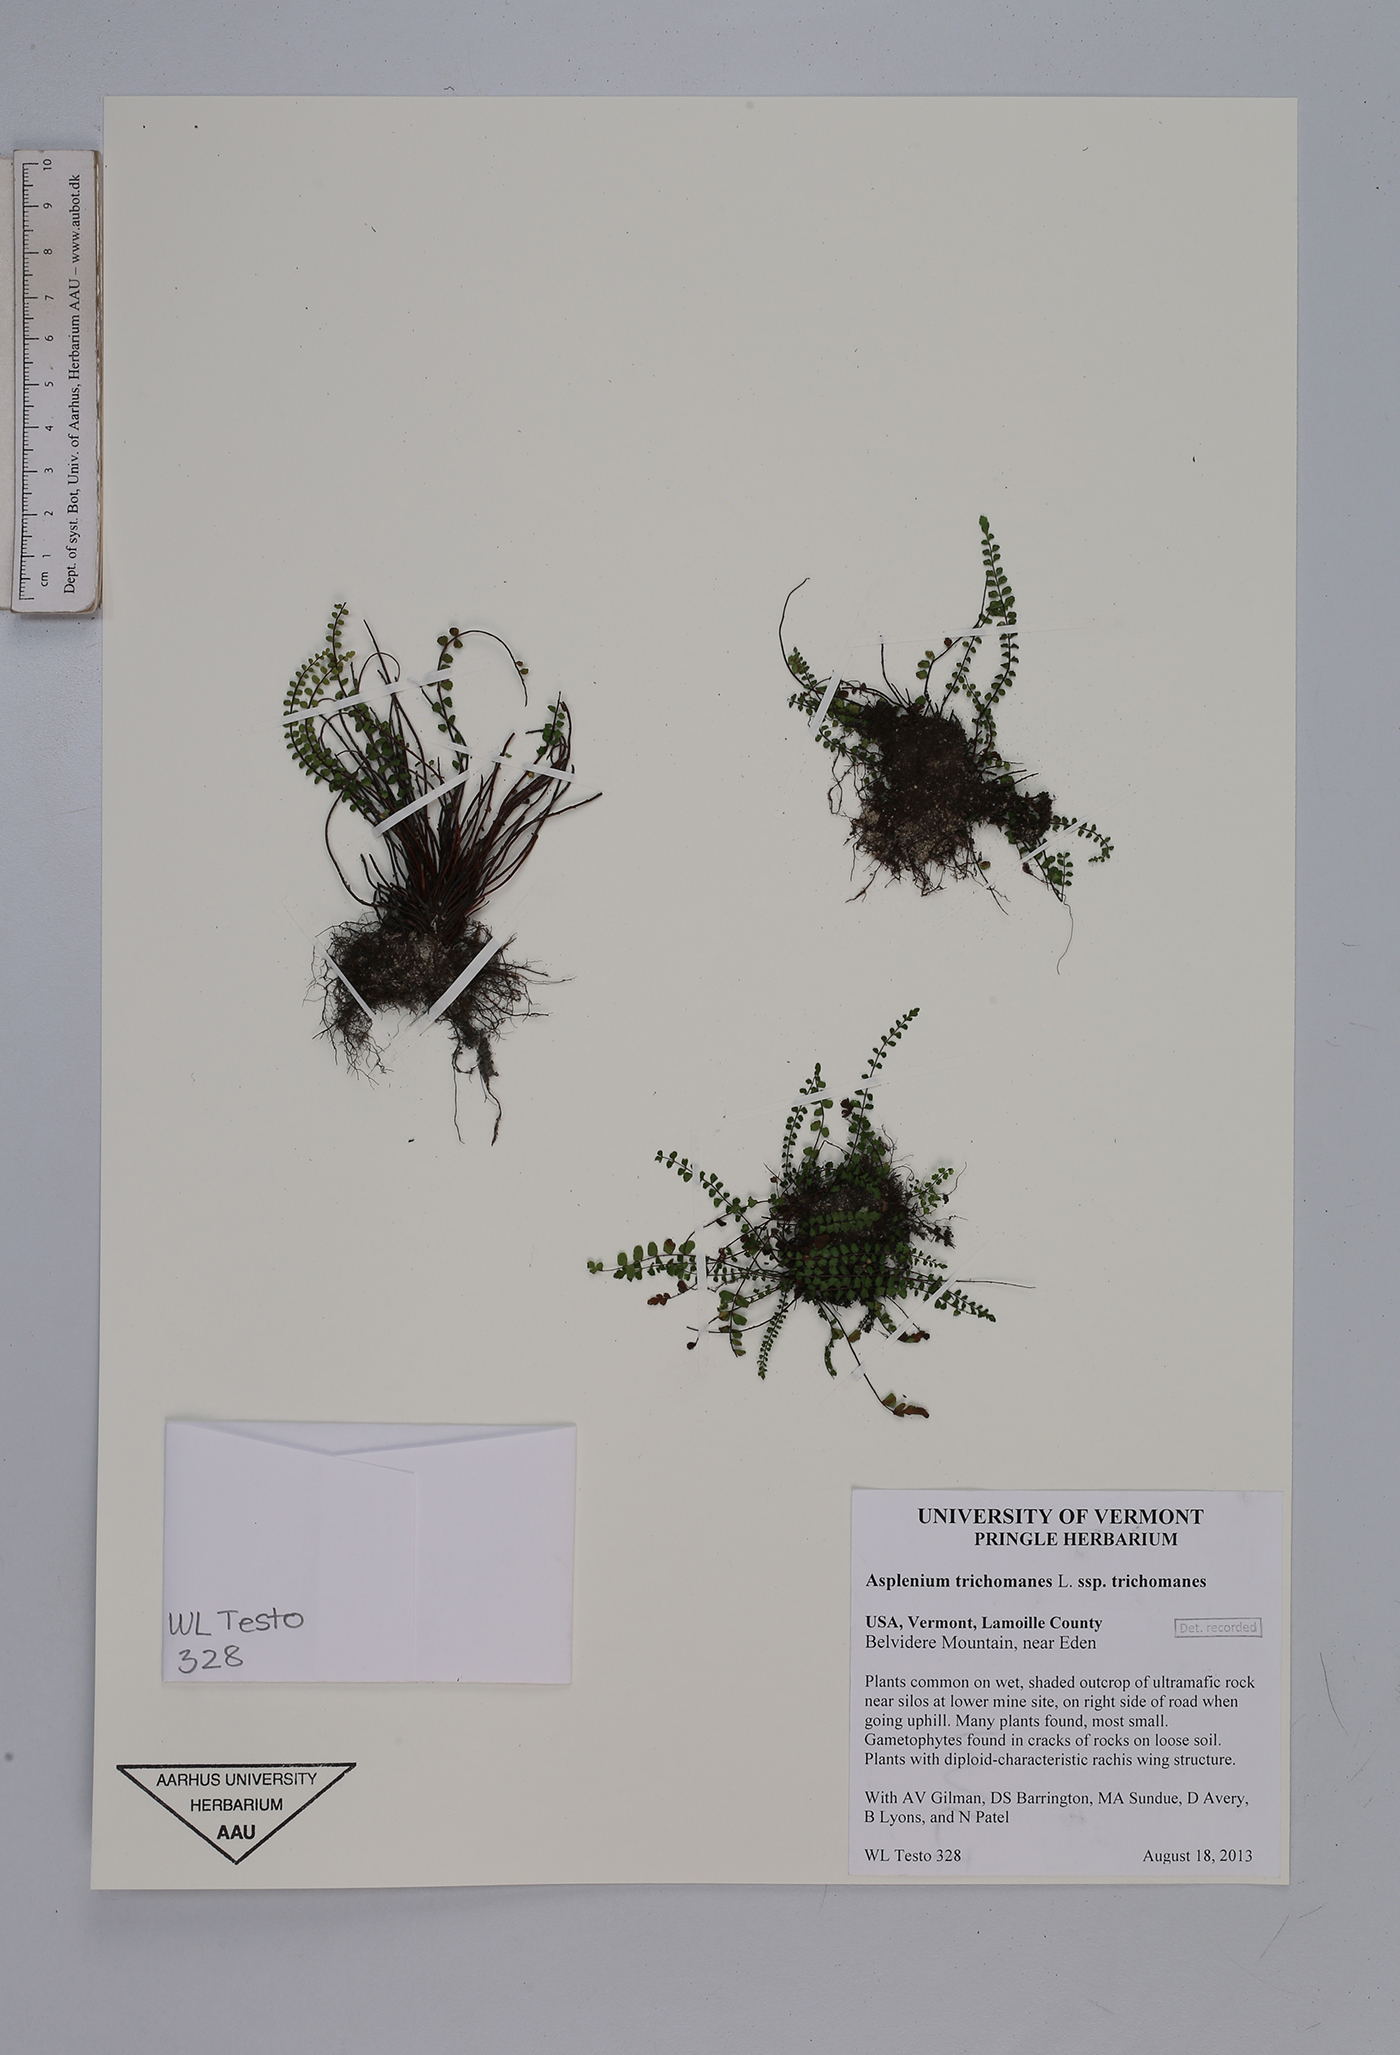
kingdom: Plantae
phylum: Tracheophyta
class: Polypodiopsida
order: Polypodiales
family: Aspleniaceae
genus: Asplenium
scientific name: Asplenium trichomanes
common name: Maidenhair spleenwort
